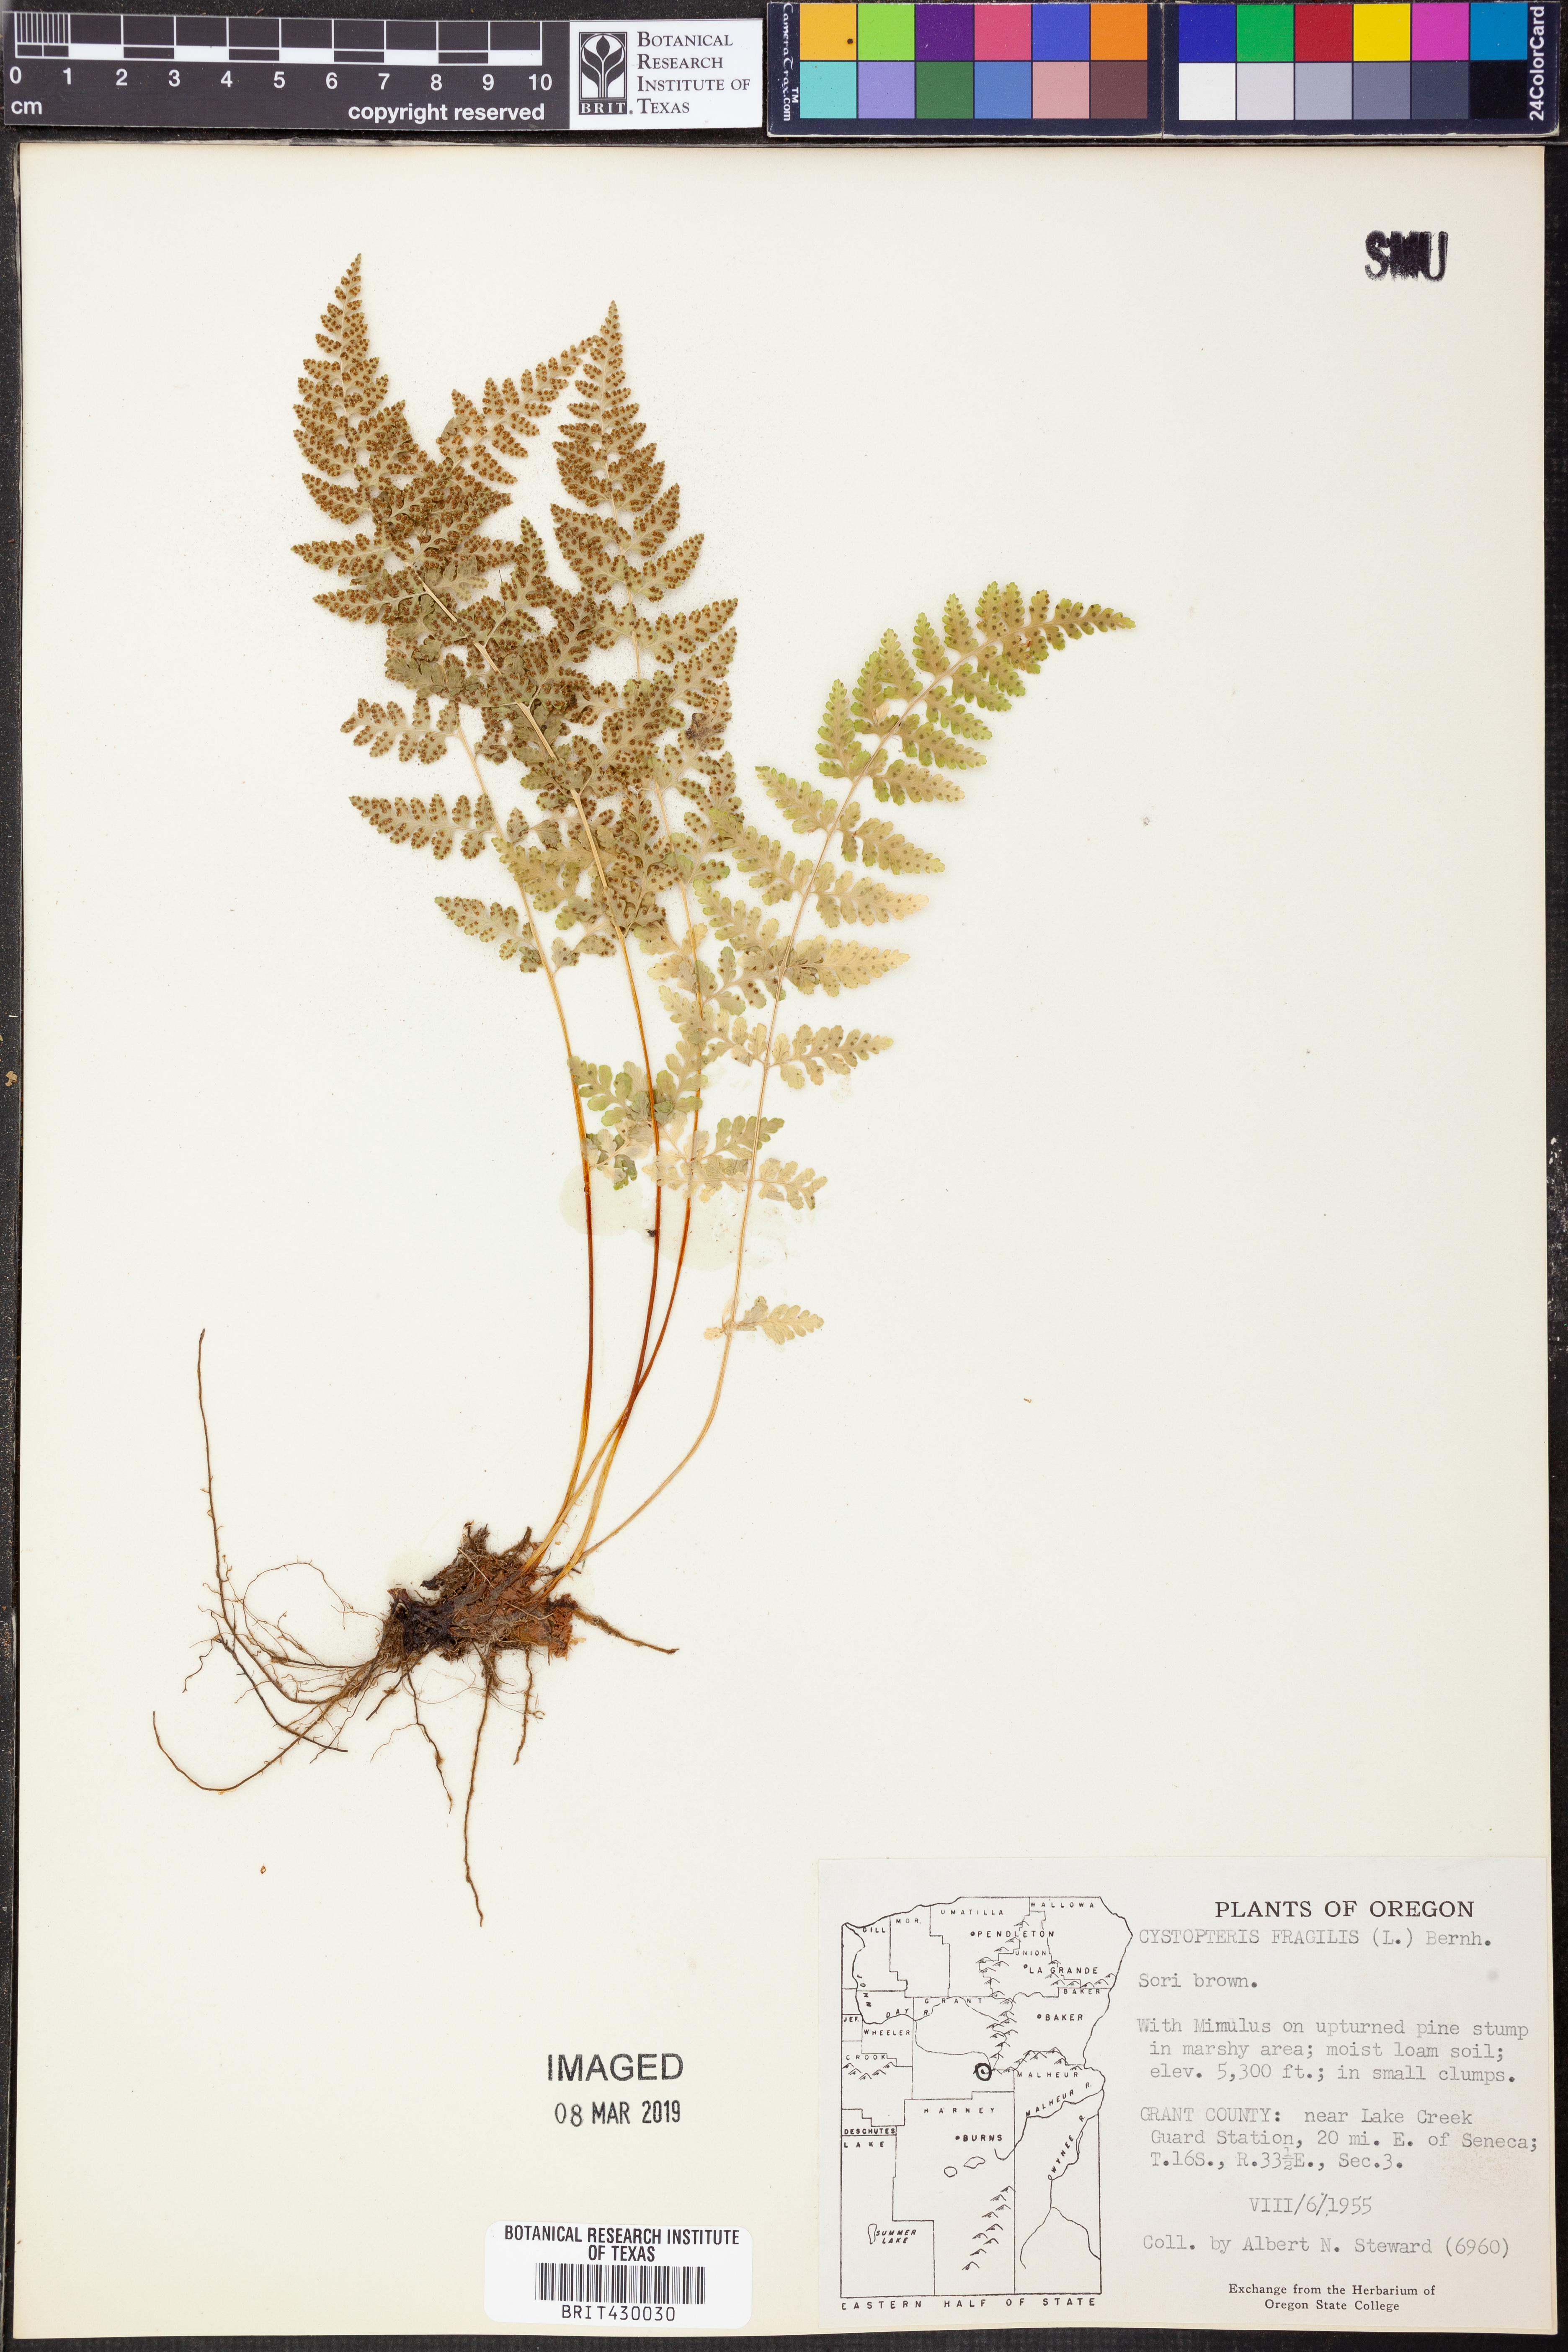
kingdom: Plantae
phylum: Tracheophyta
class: Polypodiopsida
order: Polypodiales
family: Cystopteridaceae
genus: Cystopteris
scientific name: Cystopteris fragilis
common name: Brittle bladder fern
